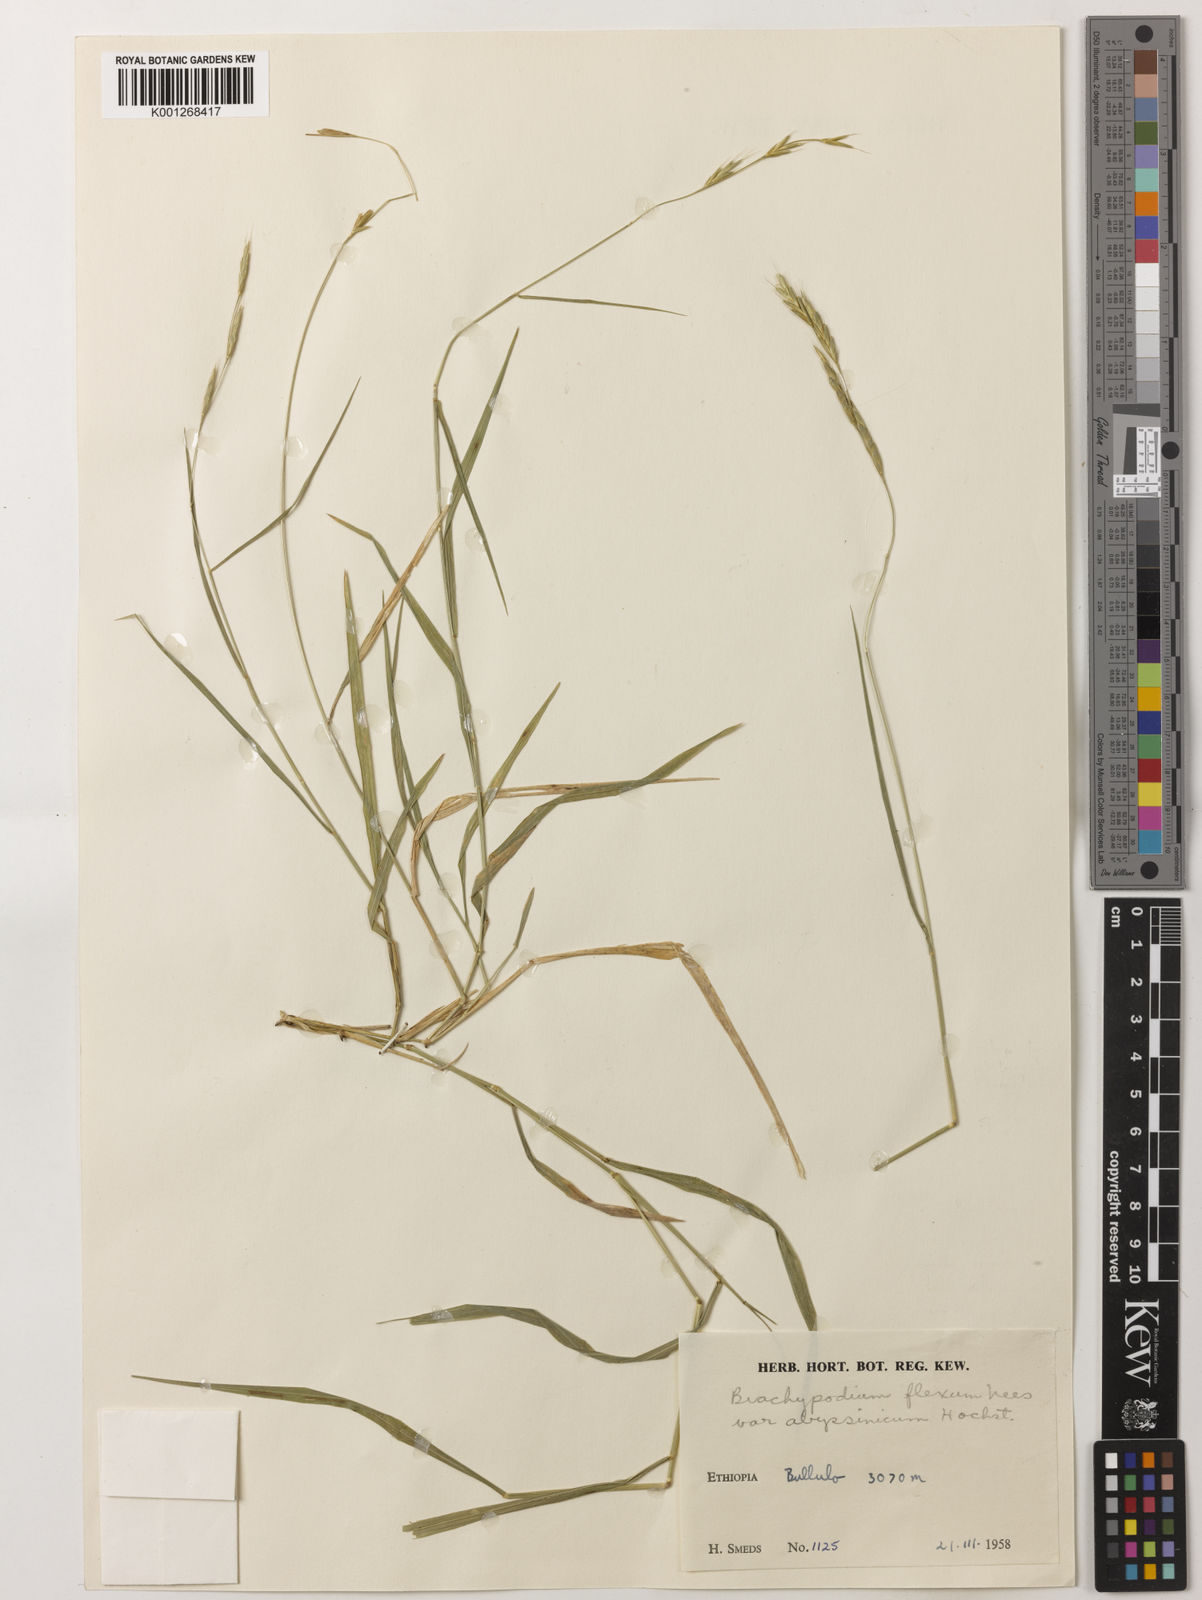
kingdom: Plantae
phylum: Tracheophyta
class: Liliopsida
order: Poales
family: Poaceae
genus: Brachypodium
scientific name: Brachypodium flexum
